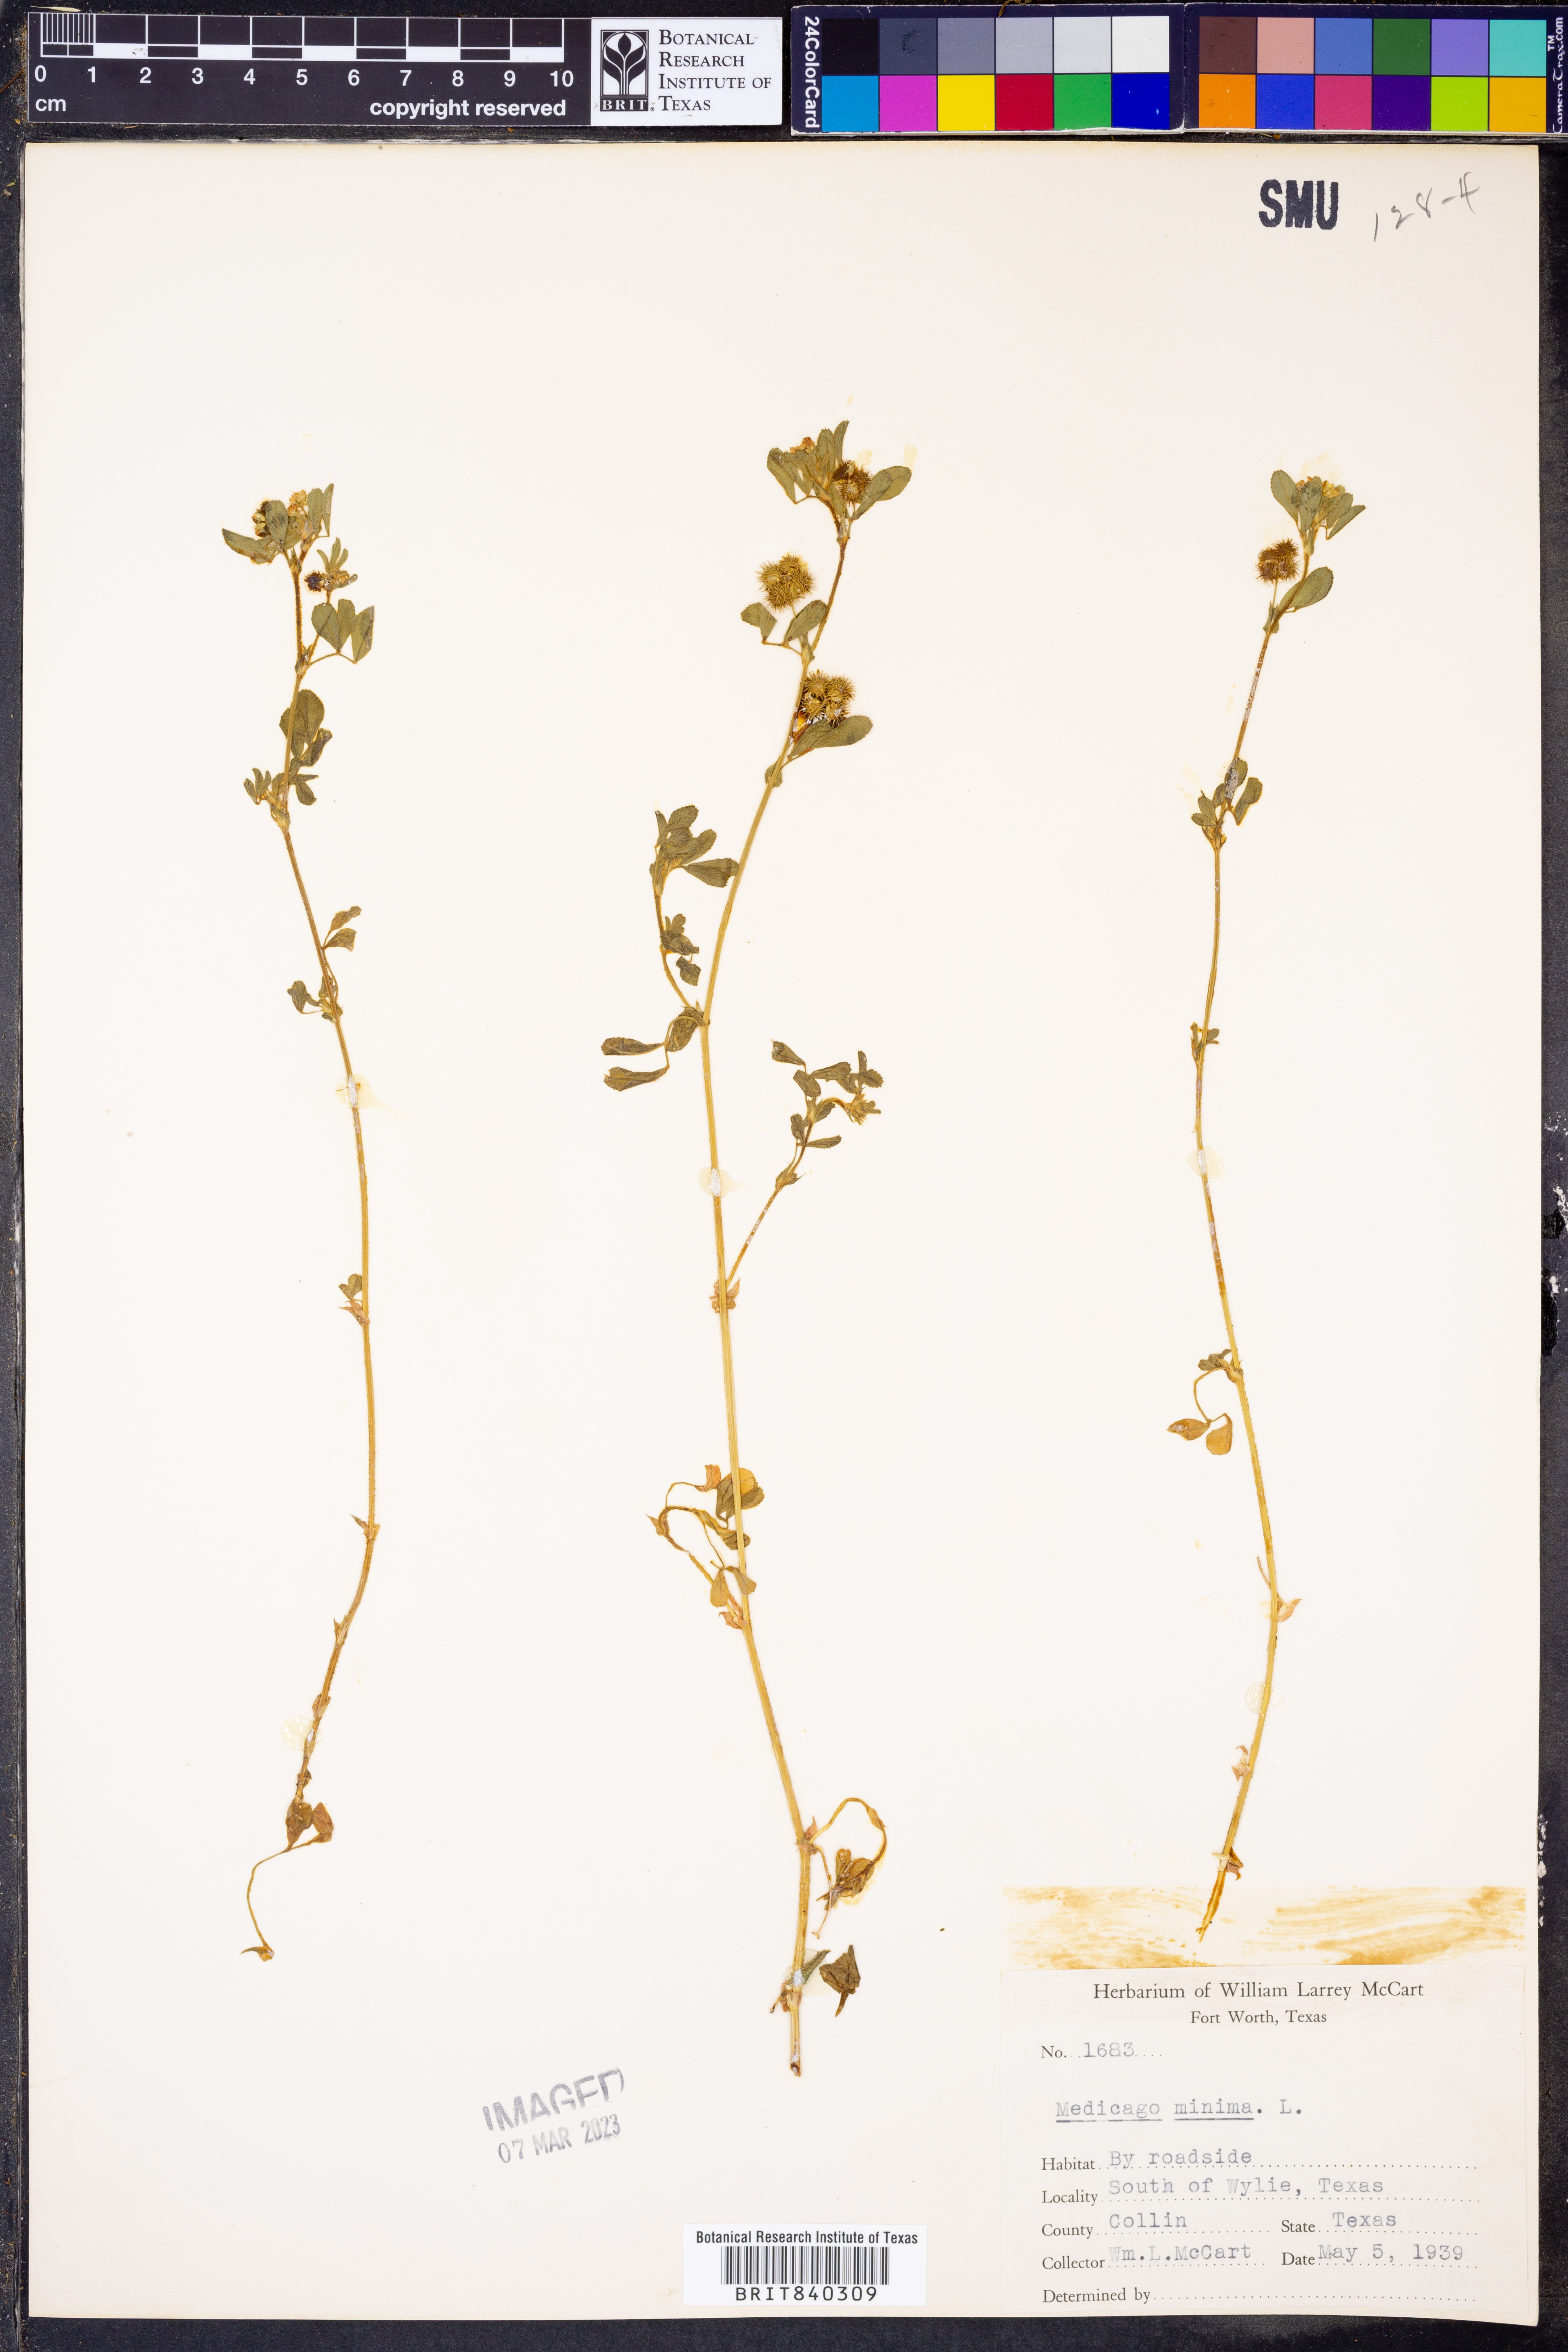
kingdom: Plantae
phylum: Tracheophyta
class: Magnoliopsida
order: Fabales
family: Fabaceae
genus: Medicago
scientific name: Medicago minima
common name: Little bur-clover
